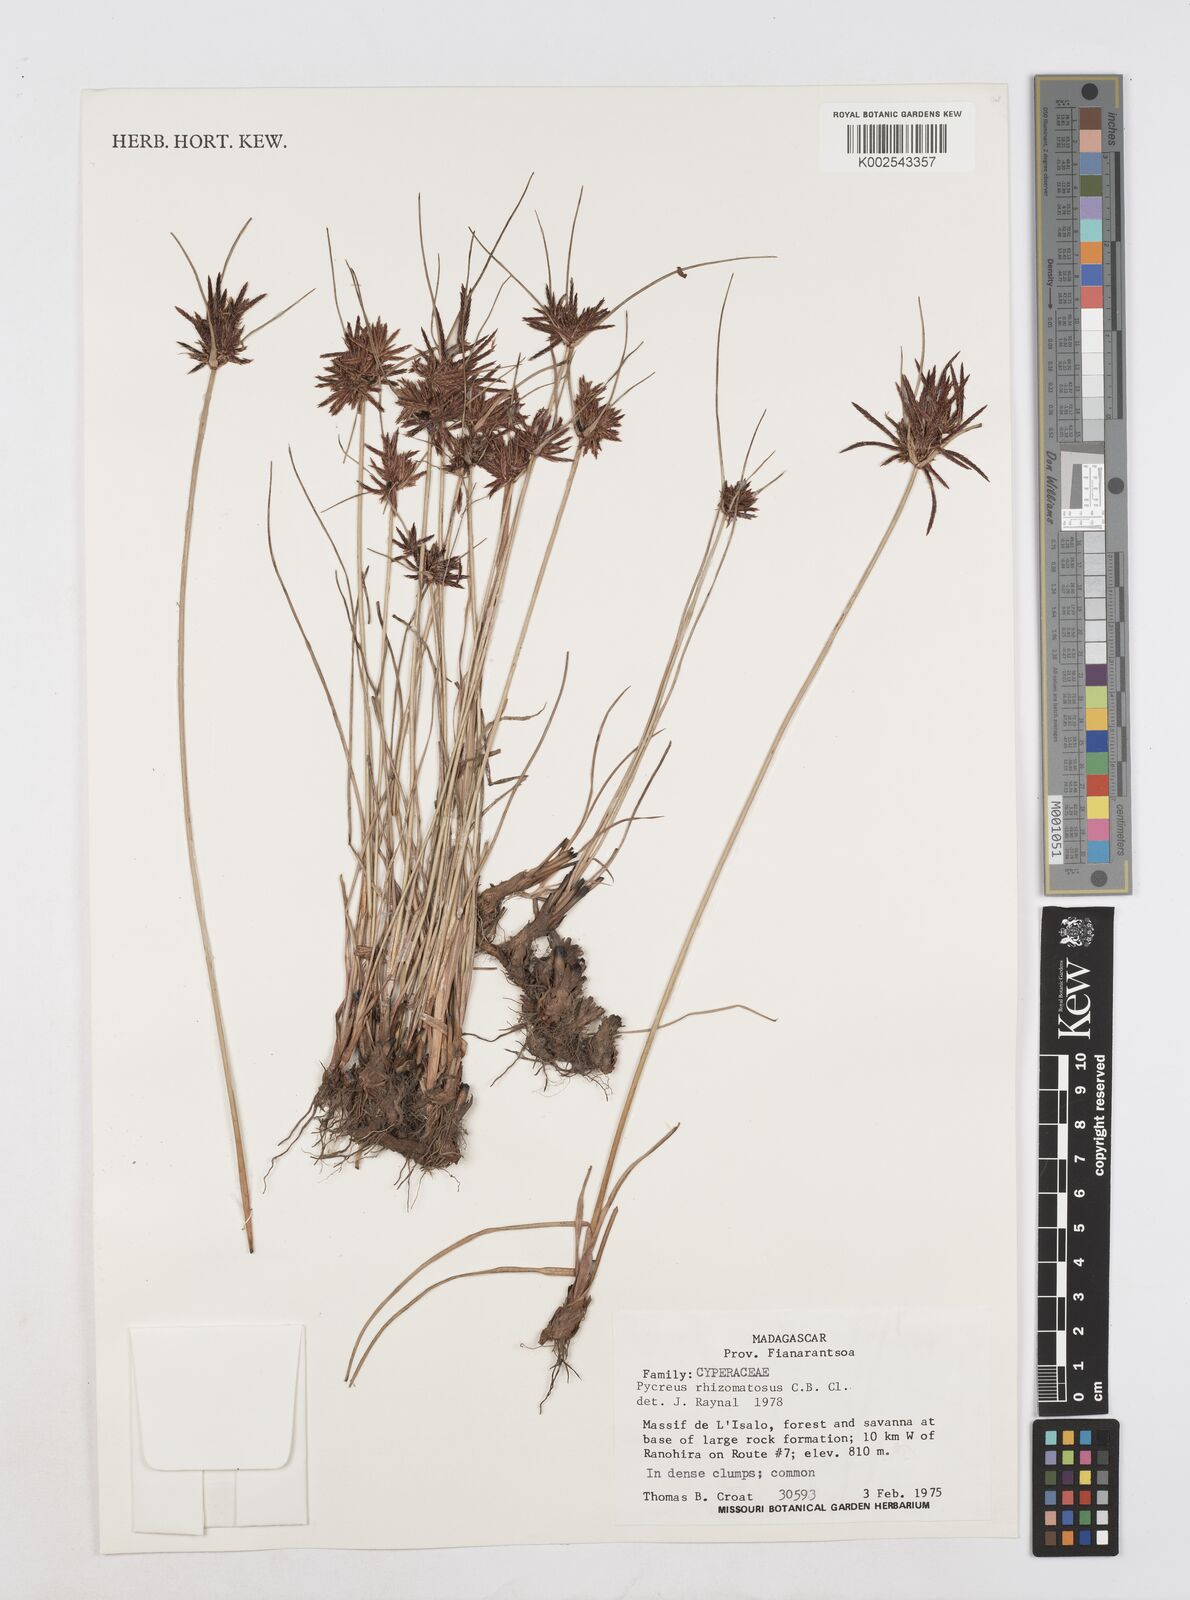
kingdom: Plantae
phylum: Tracheophyta
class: Liliopsida
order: Poales
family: Cyperaceae
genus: Cyperus
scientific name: Cyperus rhizomatosus
